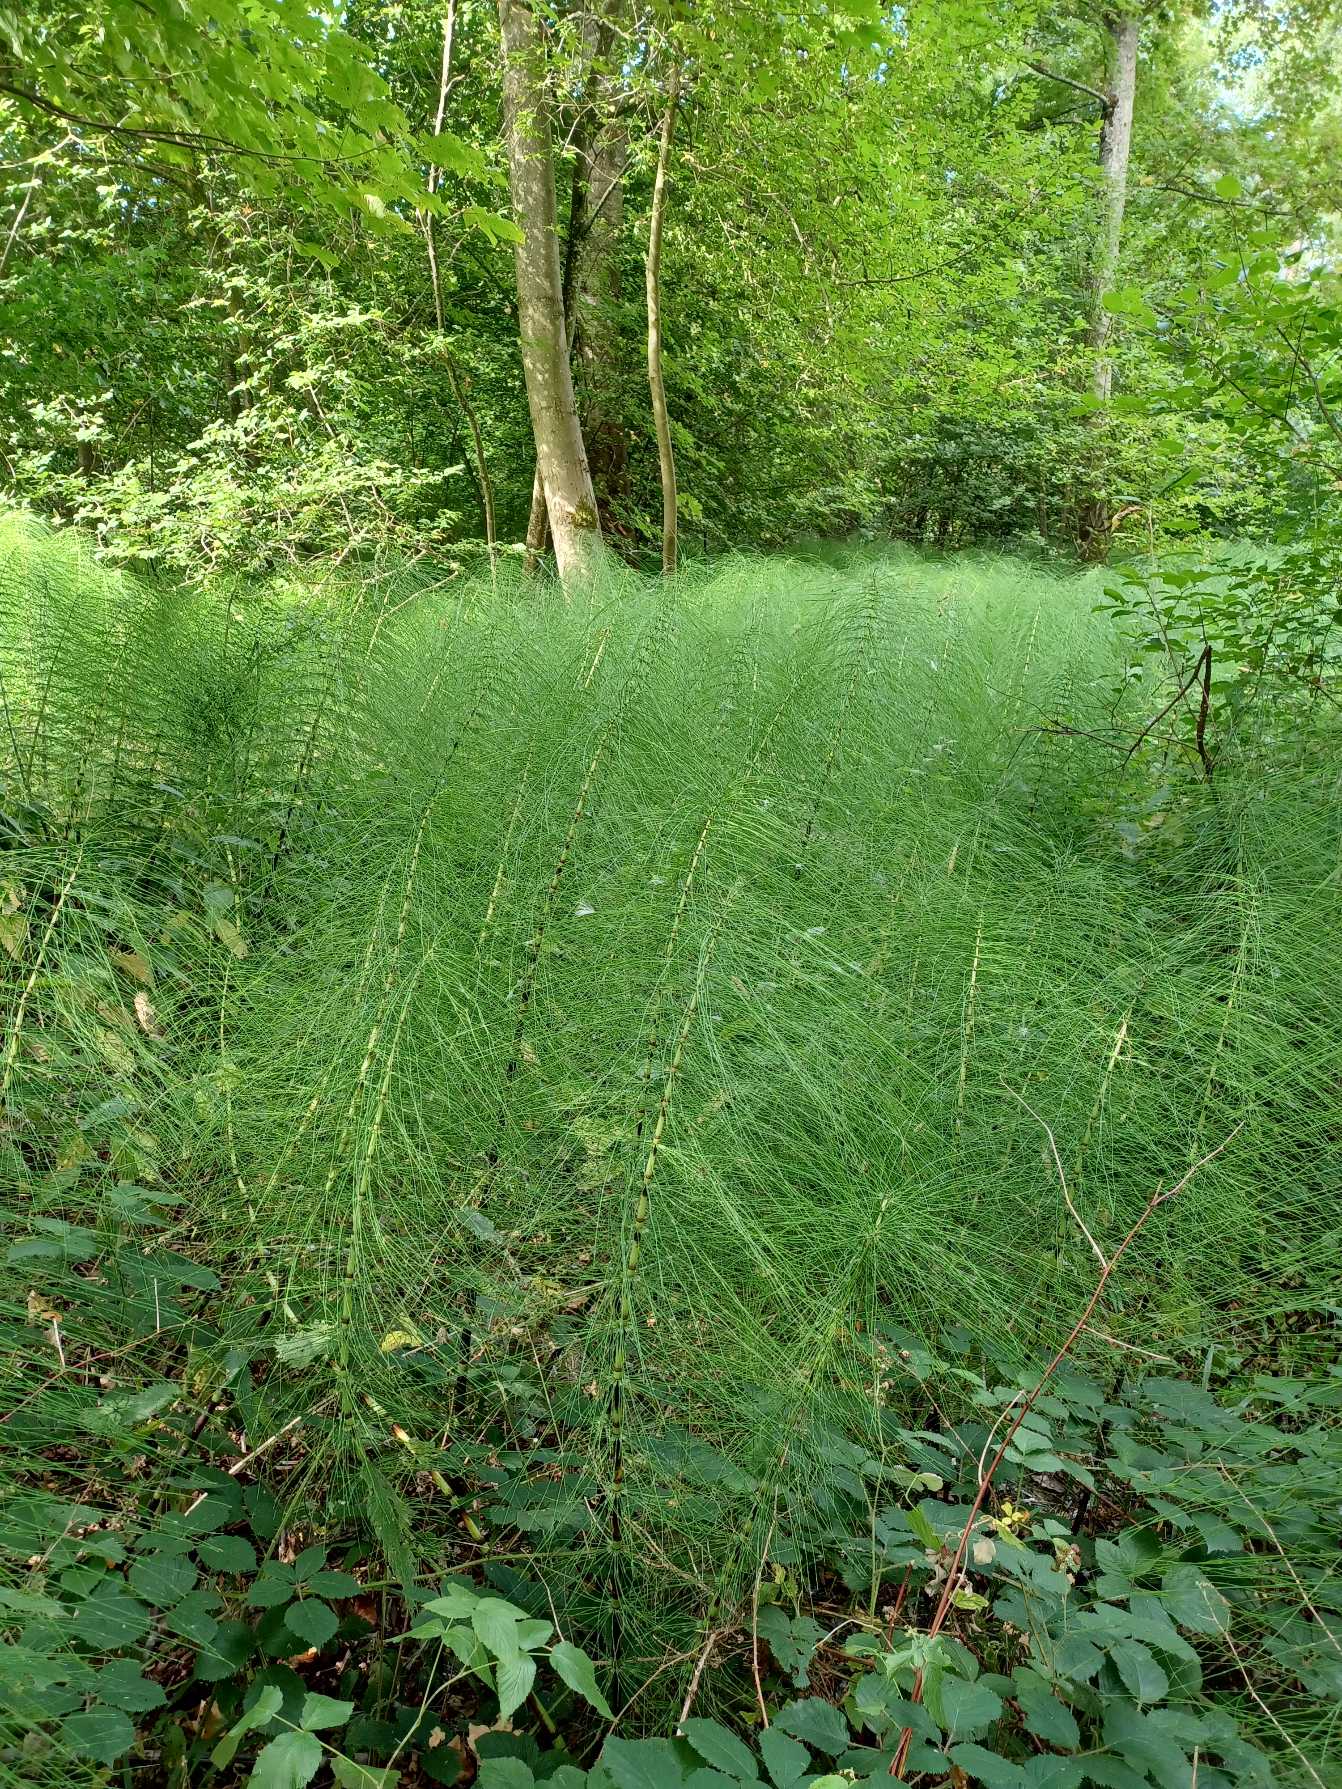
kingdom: Plantae
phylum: Tracheophyta
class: Polypodiopsida
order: Equisetales
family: Equisetaceae
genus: Equisetum
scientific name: Equisetum telmateia
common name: Elfenbens-padderok
